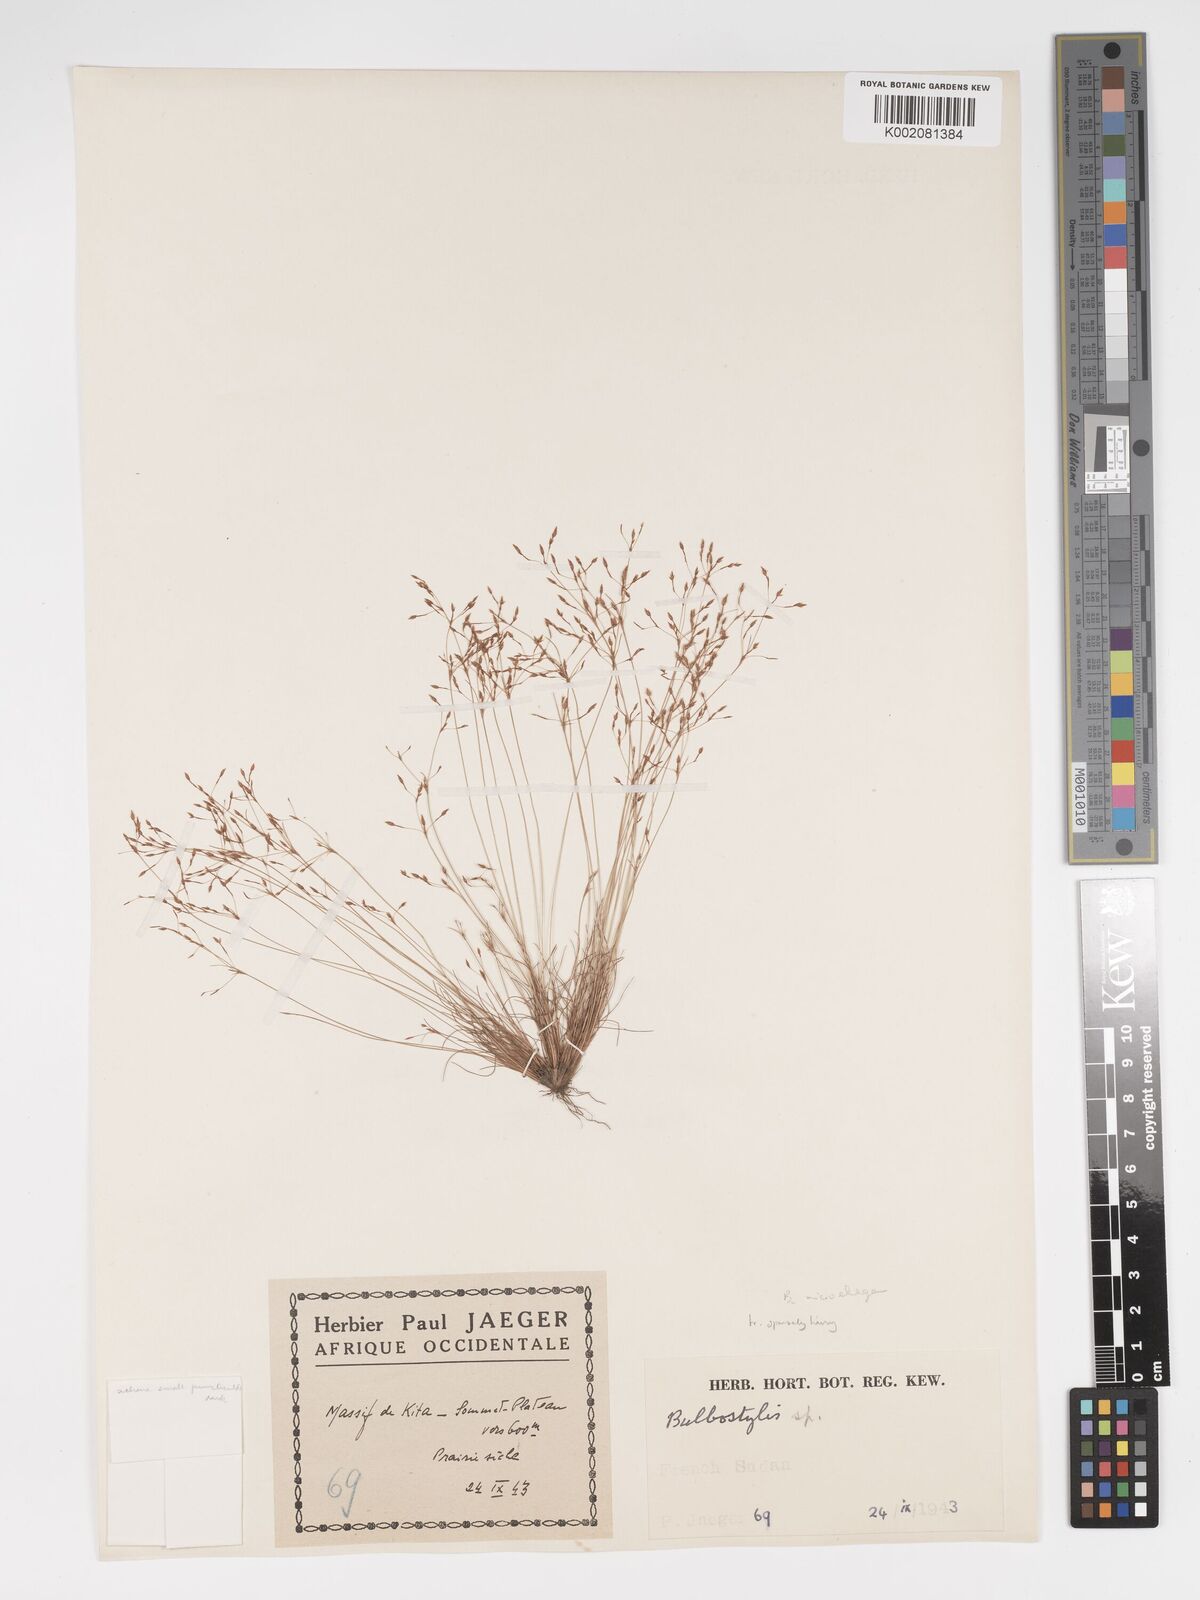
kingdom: Plantae
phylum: Tracheophyta
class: Liliopsida
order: Poales
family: Cyperaceae
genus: Bulbostylis
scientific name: Bulbostylis
